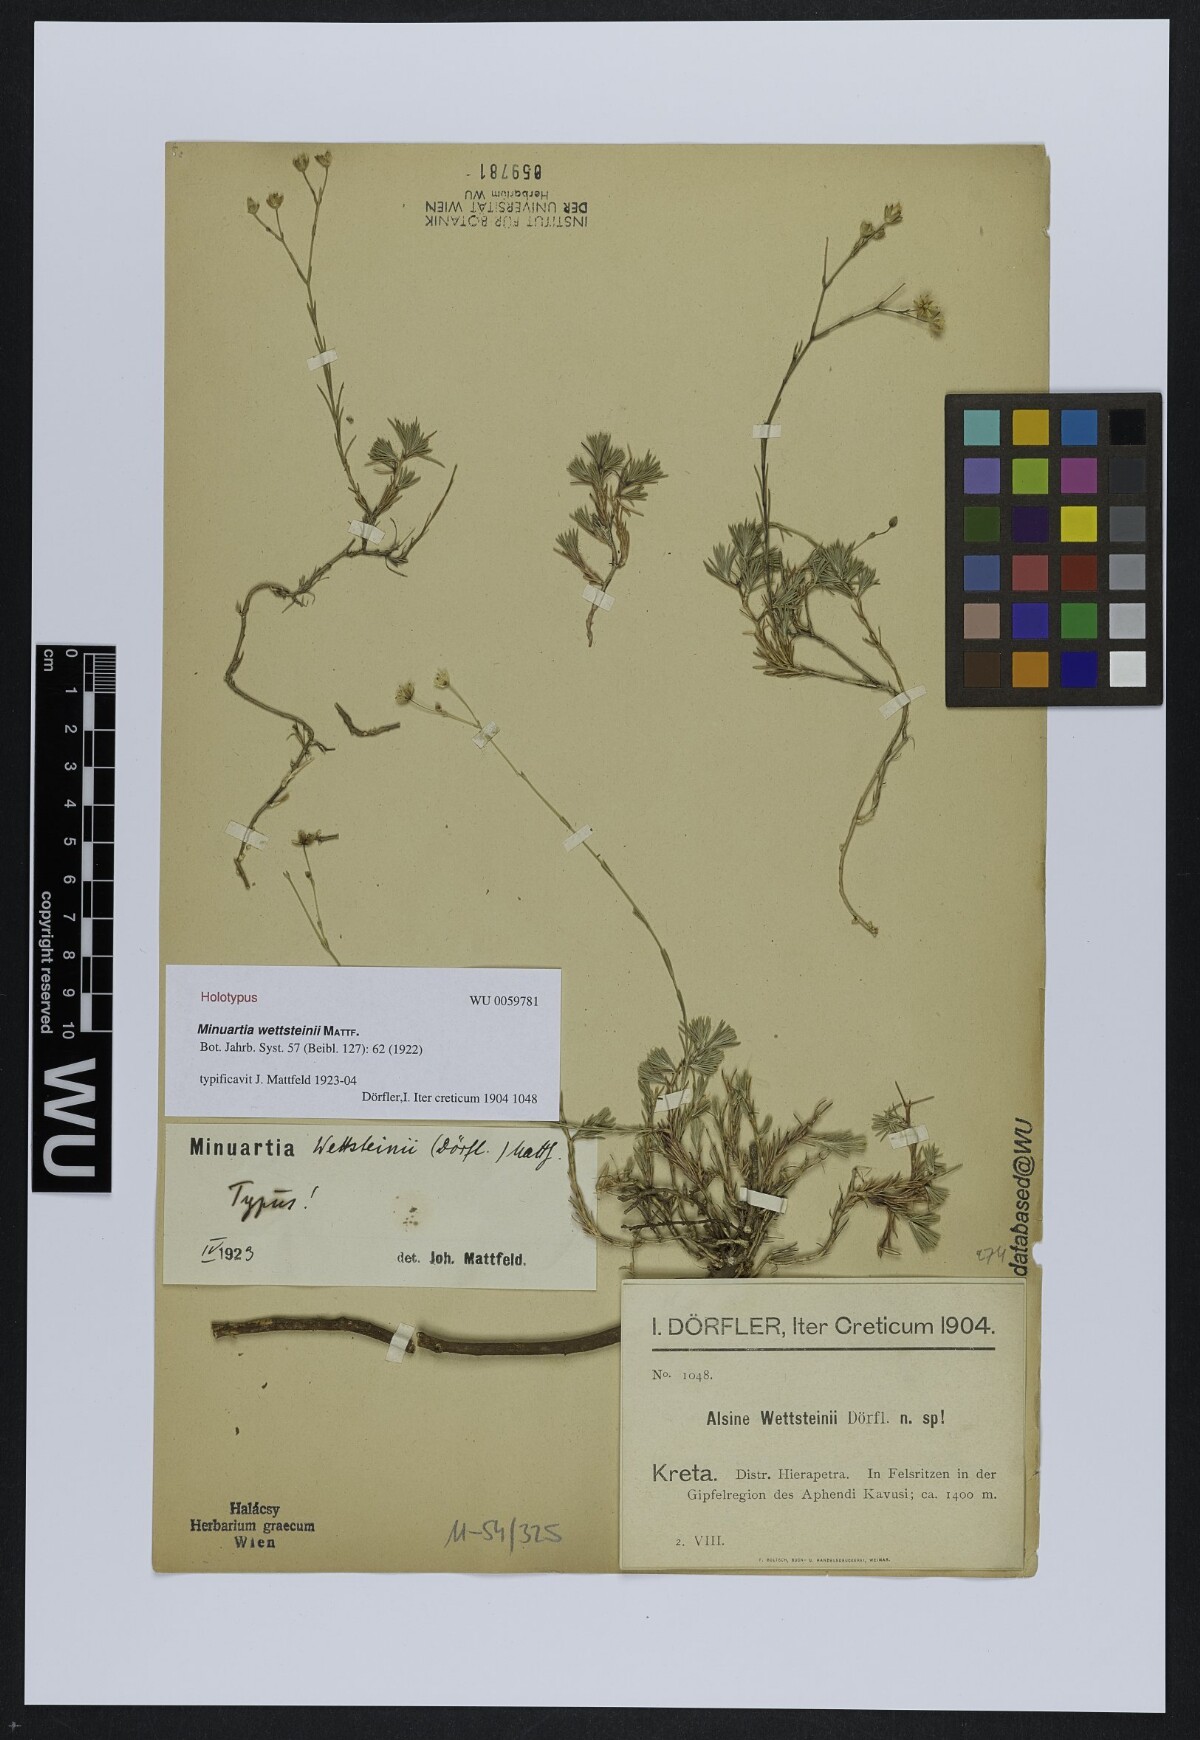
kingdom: Plantae
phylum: Tracheophyta
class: Magnoliopsida
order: Caryophyllales
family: Caryophyllaceae
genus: Cherleria
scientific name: Cherleria wettsteinii
